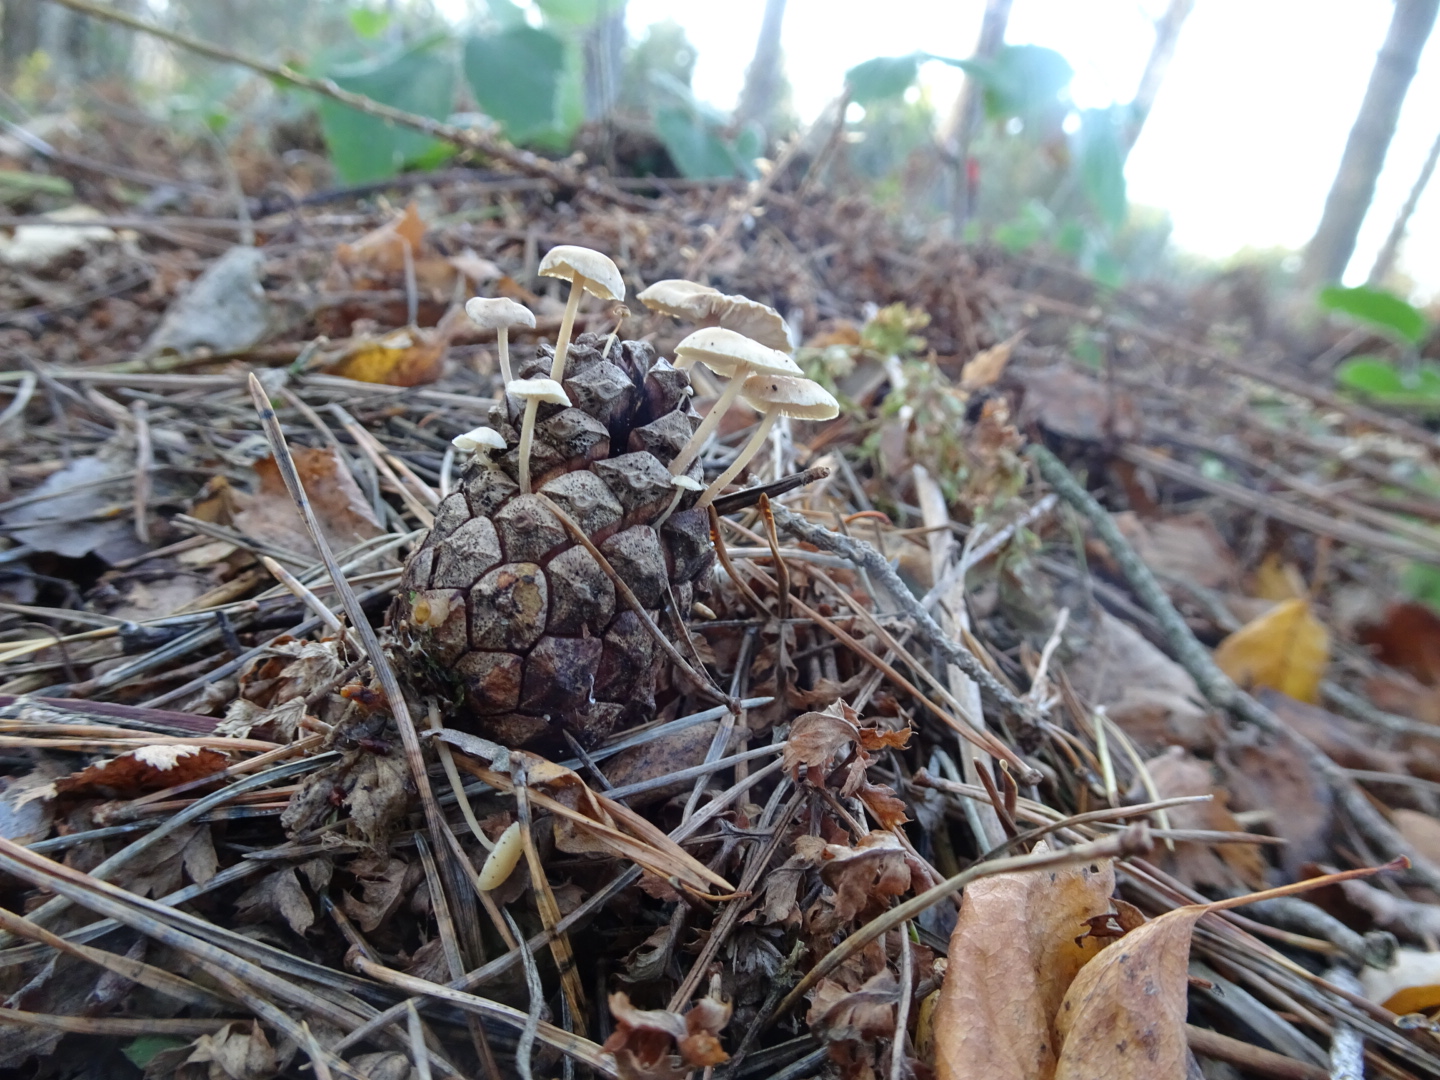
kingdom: Fungi
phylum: Basidiomycota
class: Agaricomycetes
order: Agaricales
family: Marasmiaceae
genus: Baeospora
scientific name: Baeospora myosura
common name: koglebruskhat
